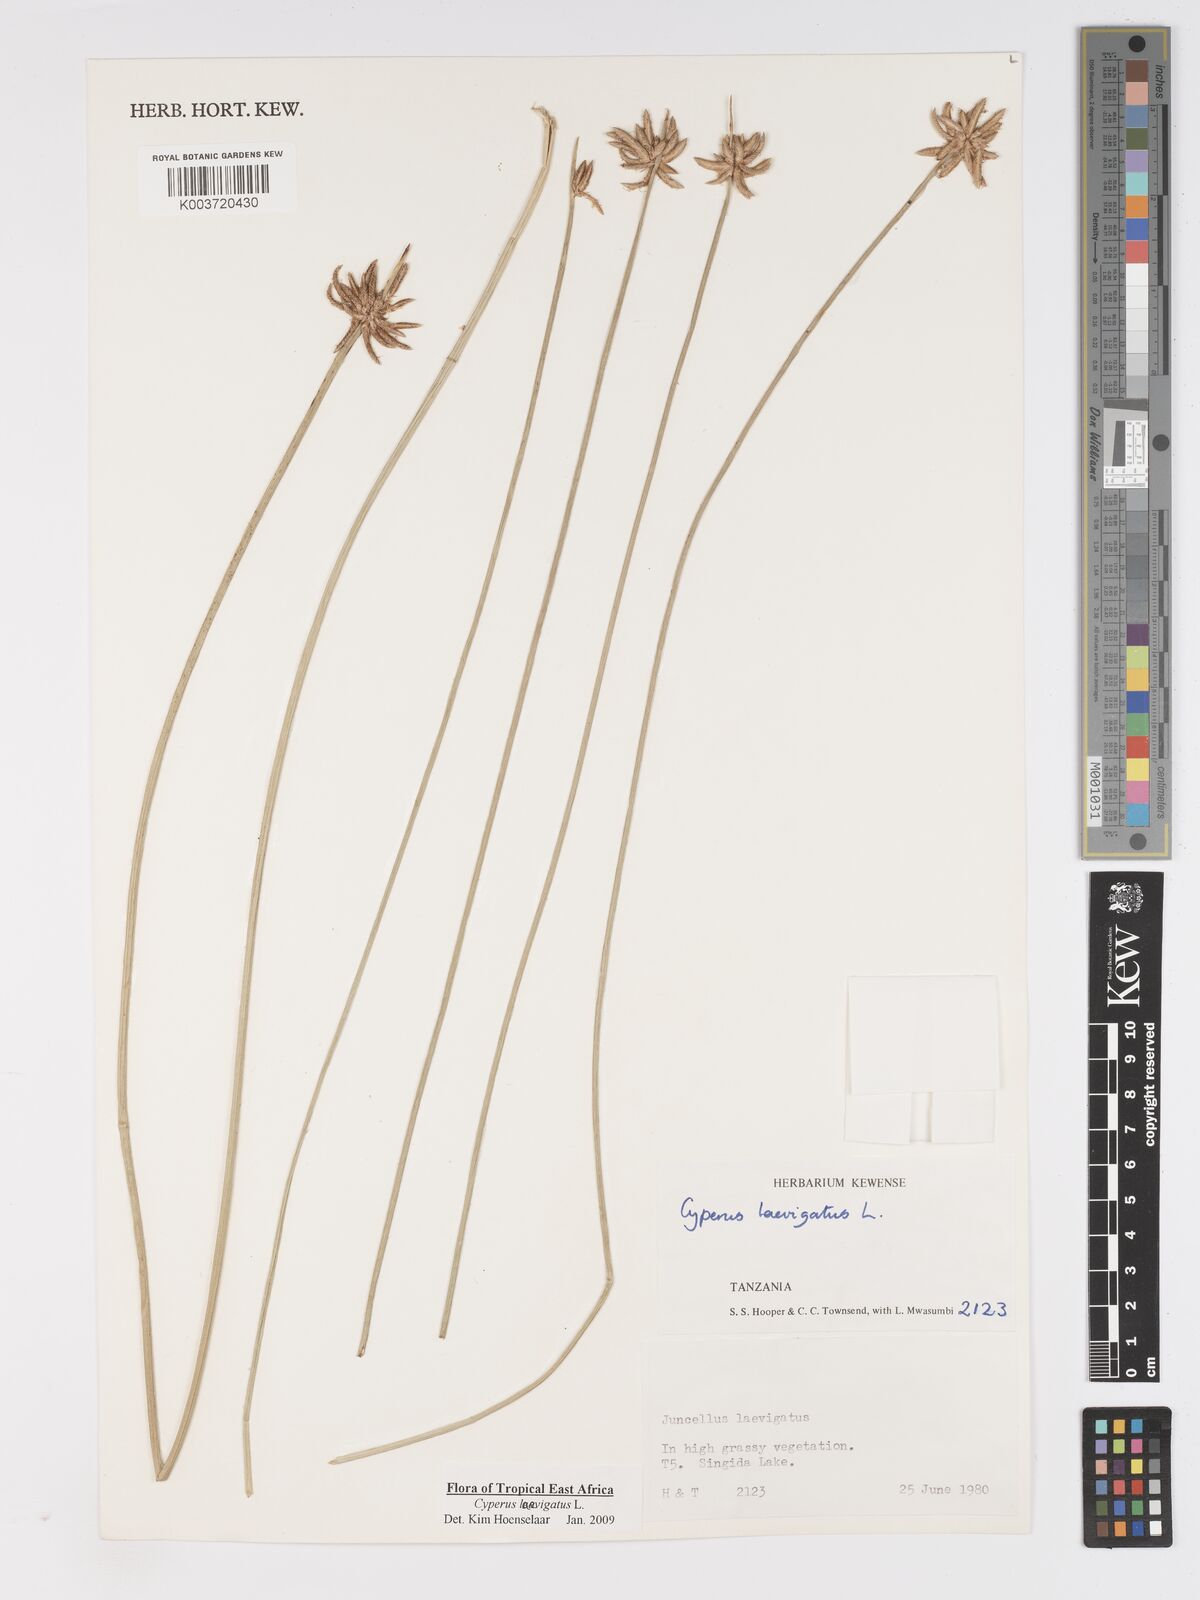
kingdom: Plantae
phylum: Tracheophyta
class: Liliopsida
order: Poales
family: Cyperaceae
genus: Cyperus
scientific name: Cyperus laevigatus
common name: Smooth flat sedge
